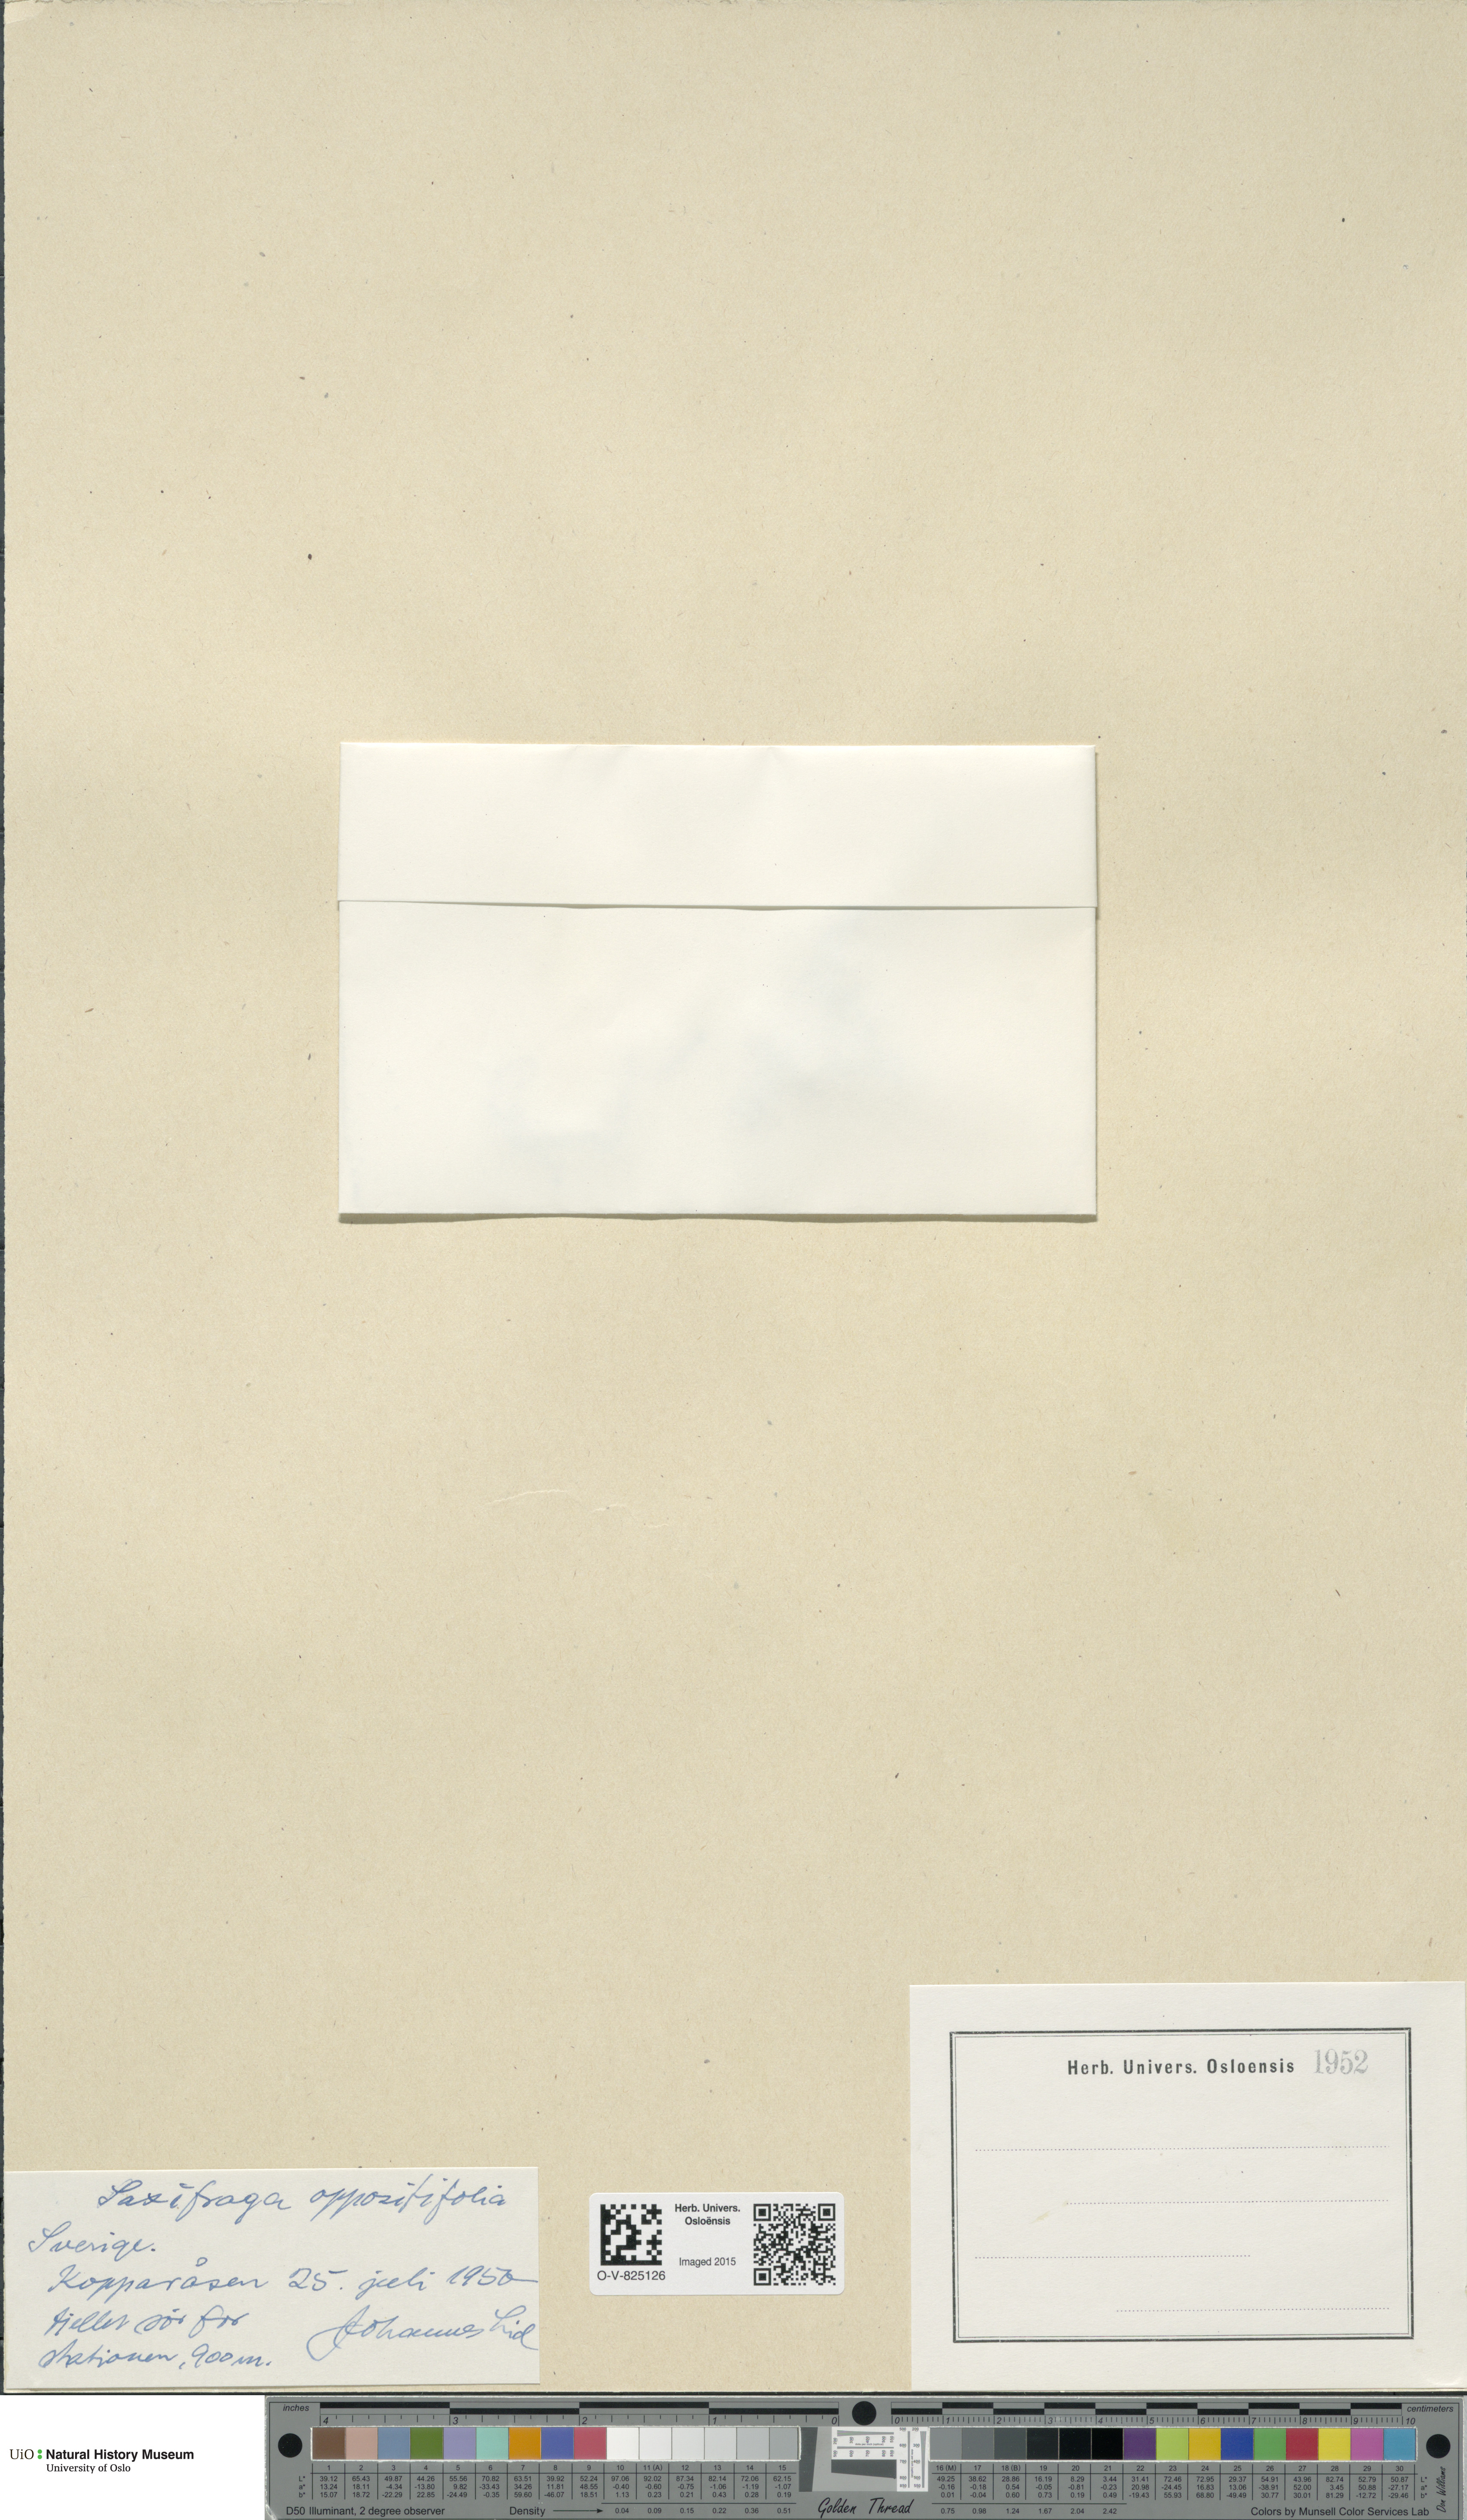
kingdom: Plantae
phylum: Tracheophyta
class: Magnoliopsida
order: Saxifragales
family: Saxifragaceae
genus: Saxifraga
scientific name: Saxifraga oppositifolia
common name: Purple saxifrage
